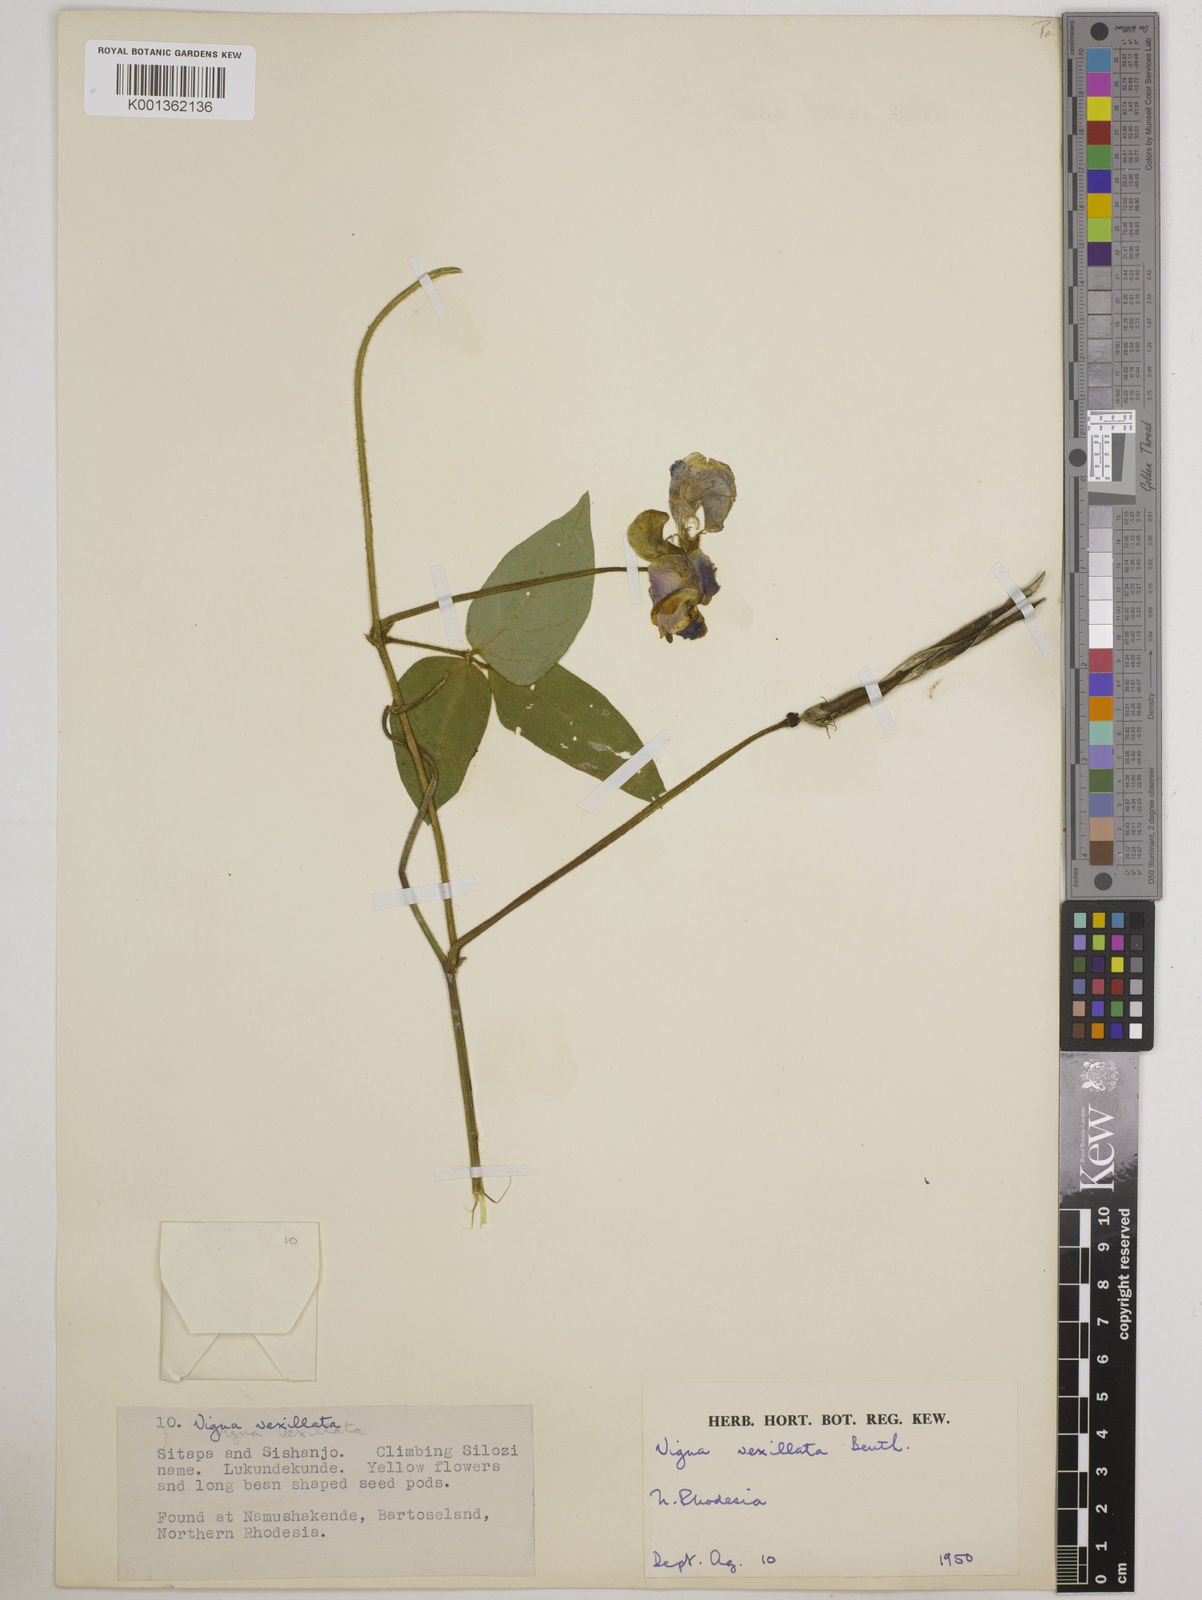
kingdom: Plantae
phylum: Tracheophyta
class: Magnoliopsida
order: Fabales
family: Fabaceae
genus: Vigna
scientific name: Vigna vexillata
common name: Zombi pea
